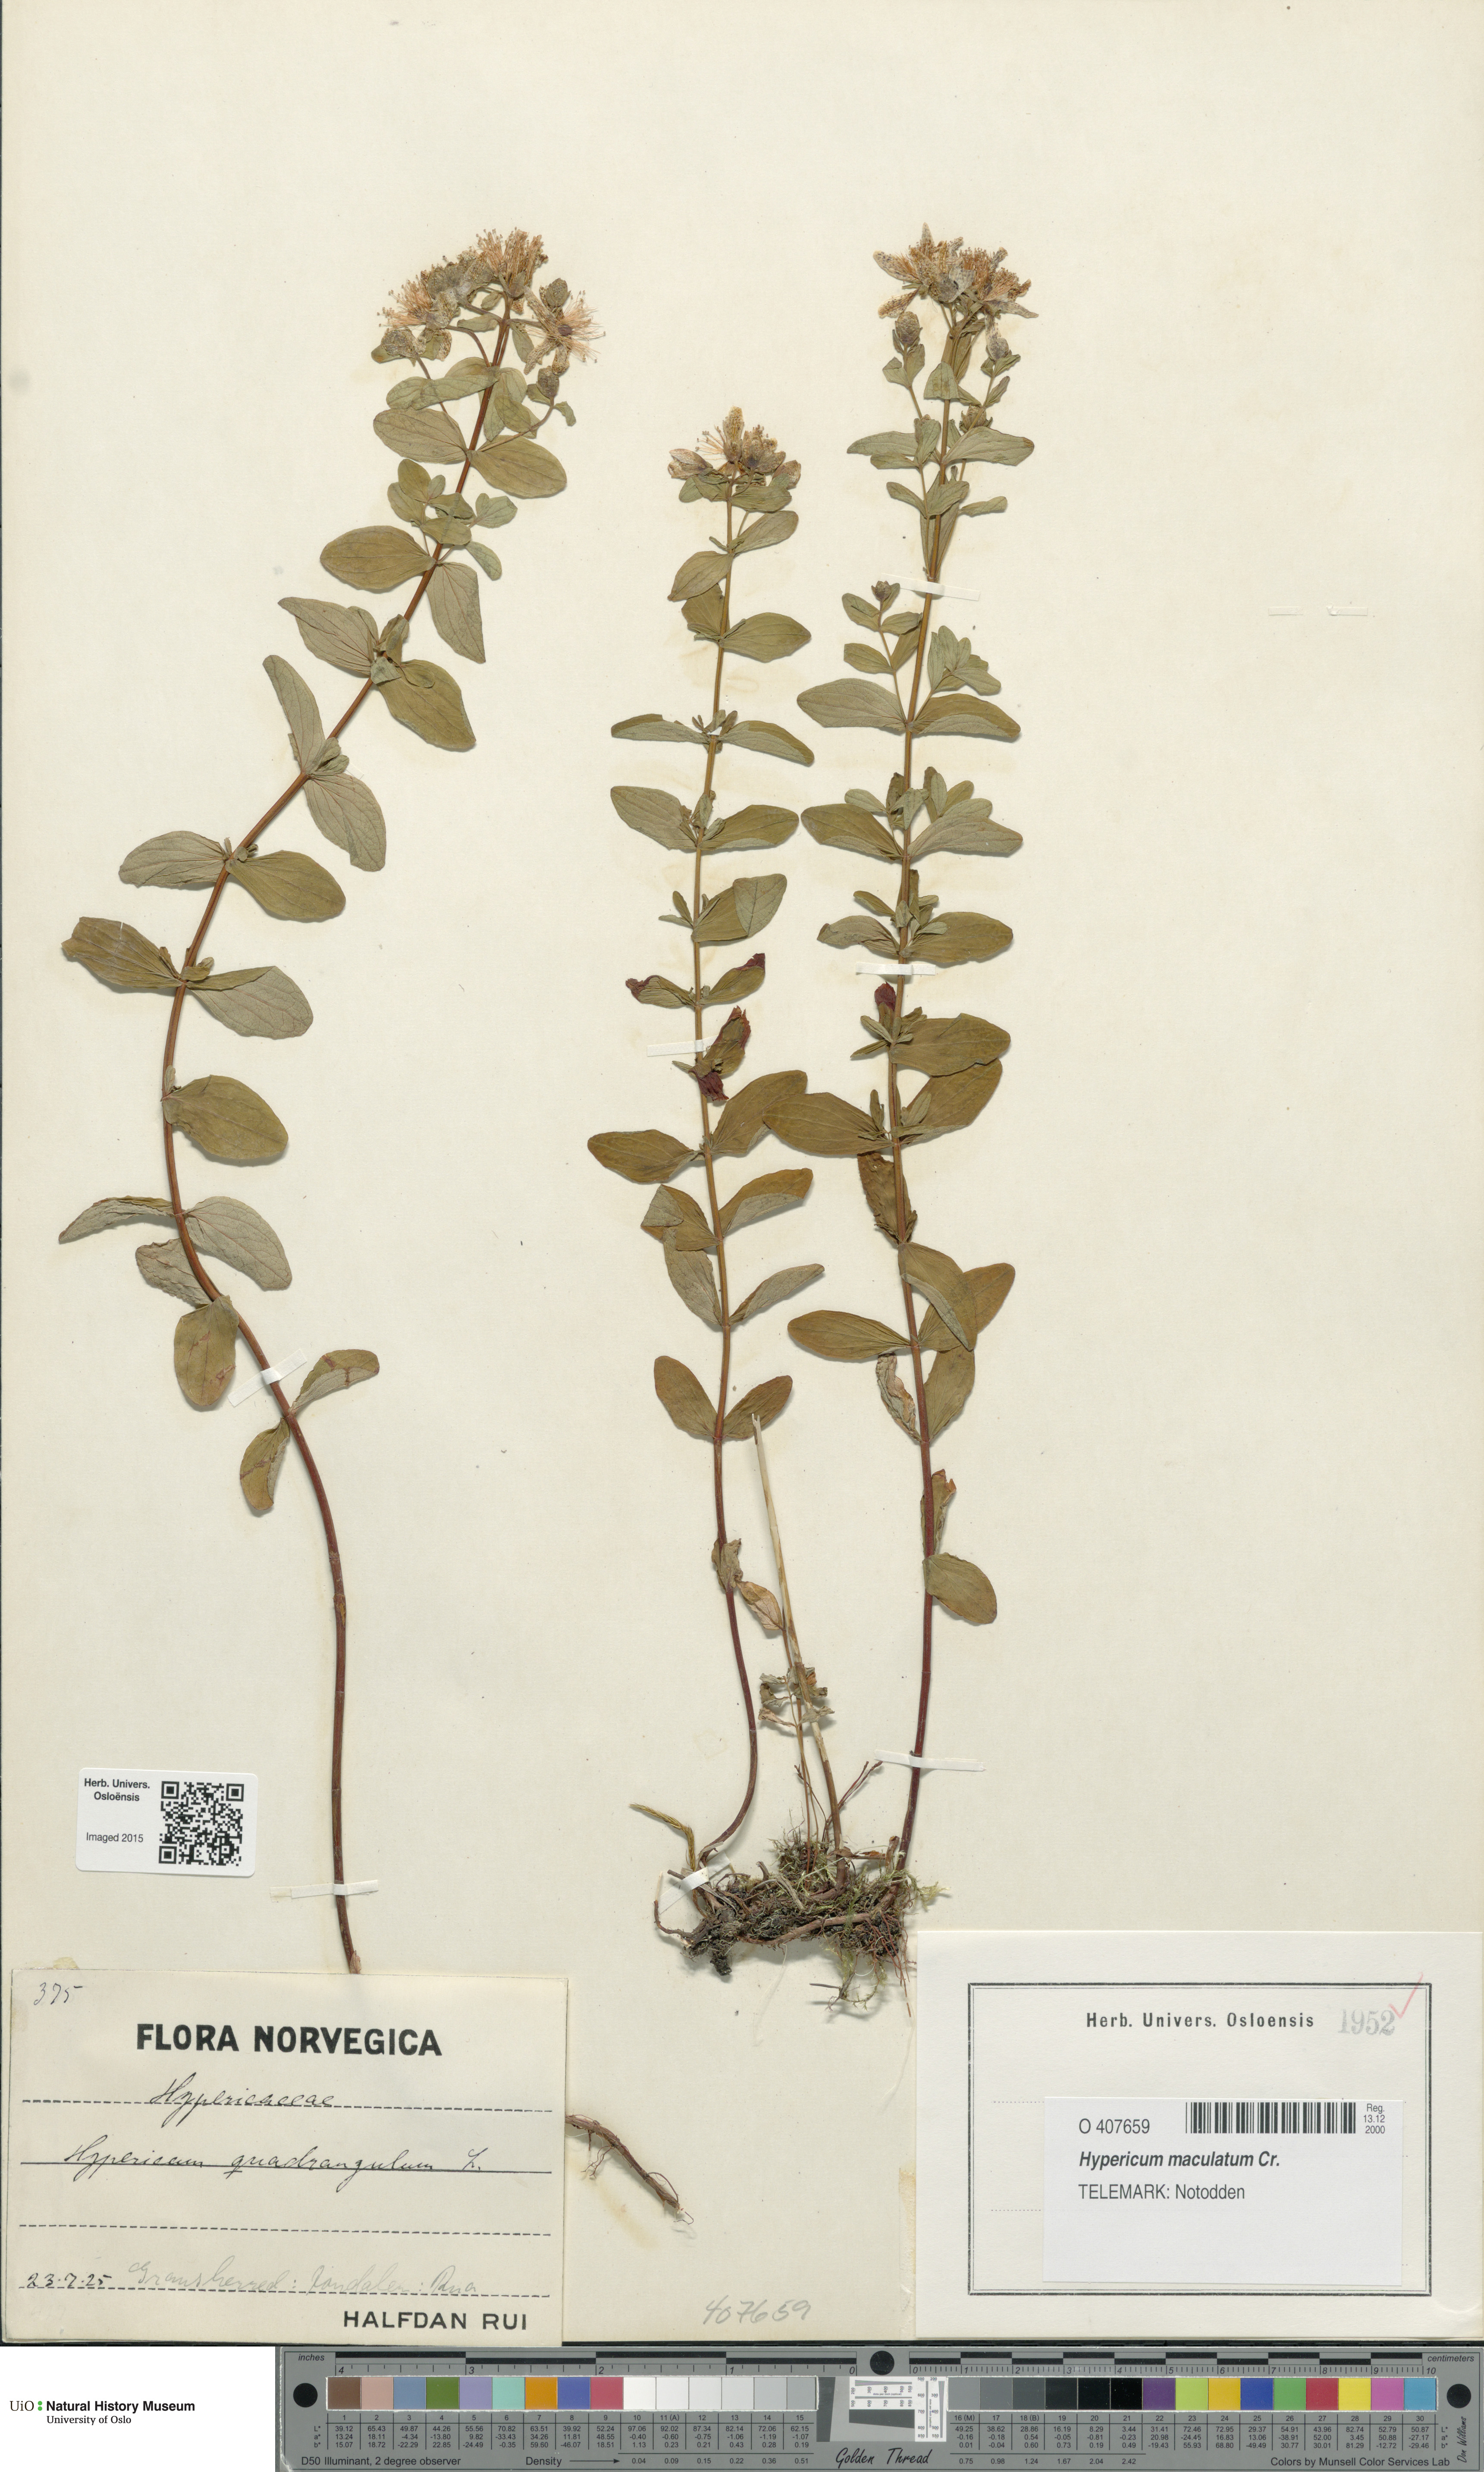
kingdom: Plantae
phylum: Tracheophyta
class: Magnoliopsida
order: Malpighiales
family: Hypericaceae
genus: Hypericum
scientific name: Hypericum maculatum
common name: Imperforate st. john's-wort
